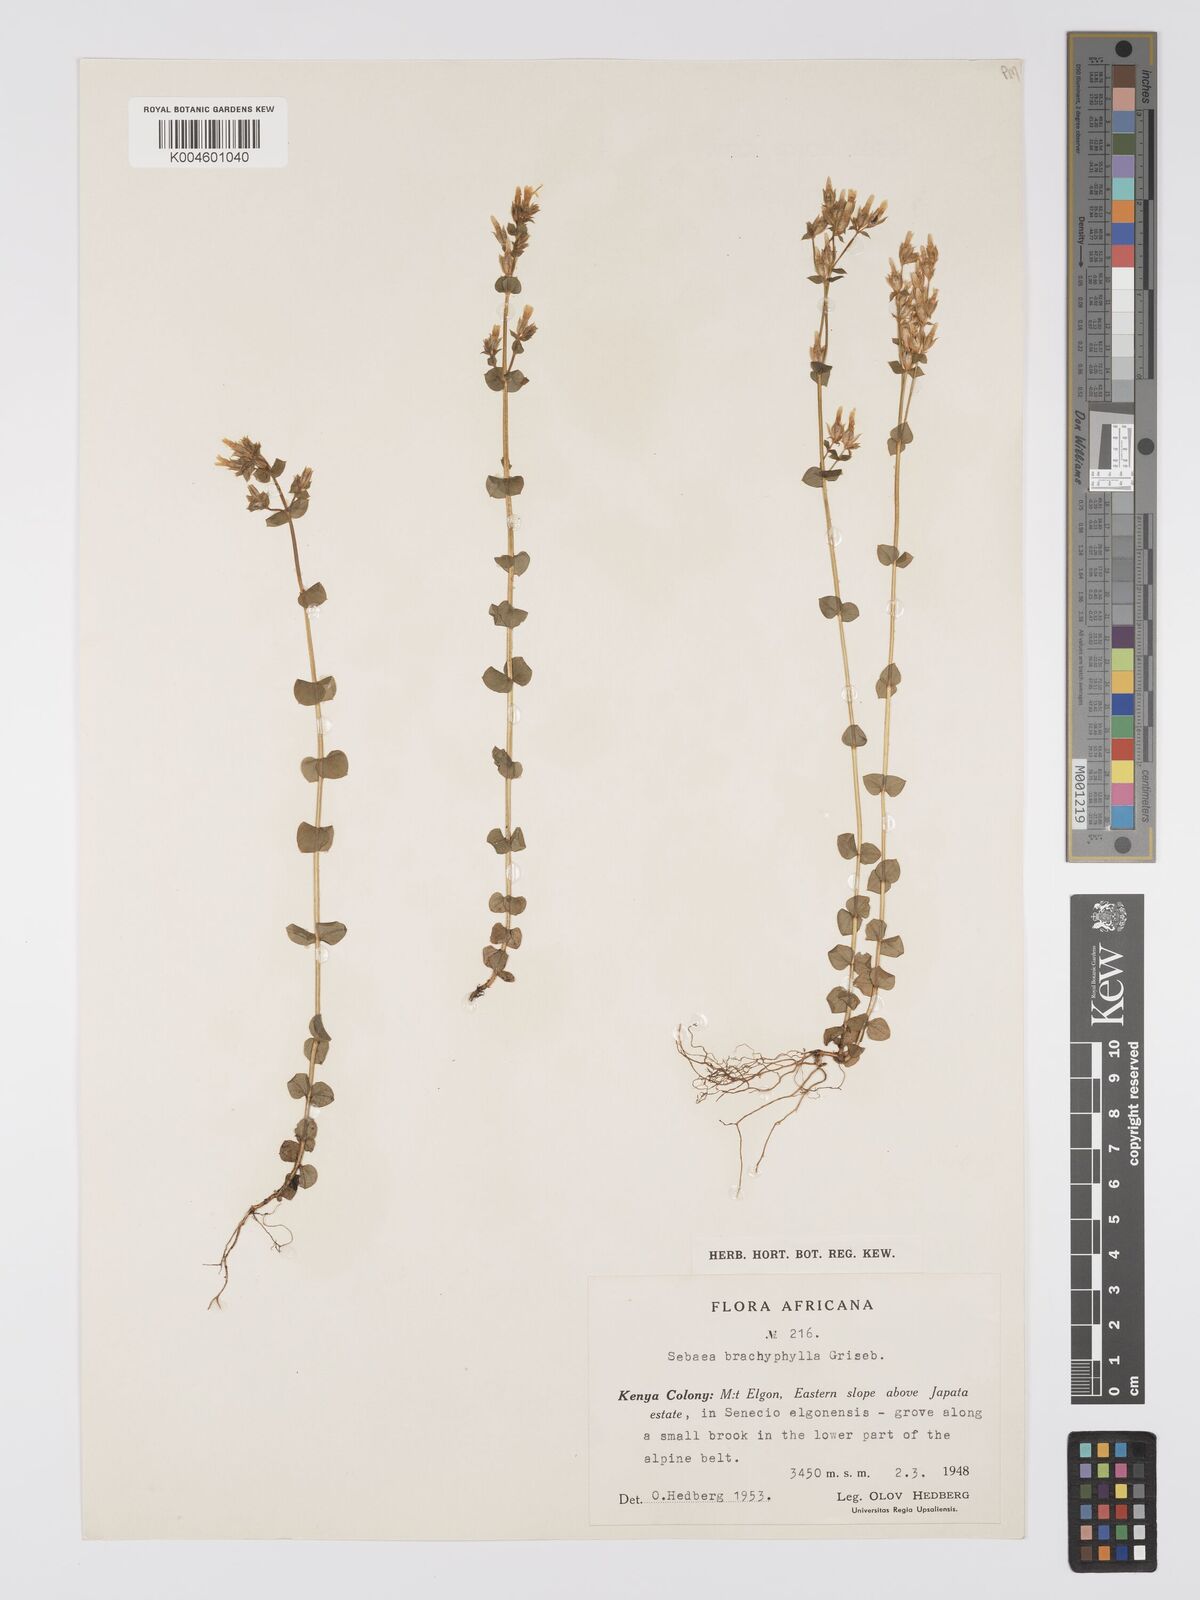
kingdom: Plantae
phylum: Tracheophyta
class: Magnoliopsida
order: Gentianales
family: Gentianaceae
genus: Sebaea
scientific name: Sebaea brachyphylla
